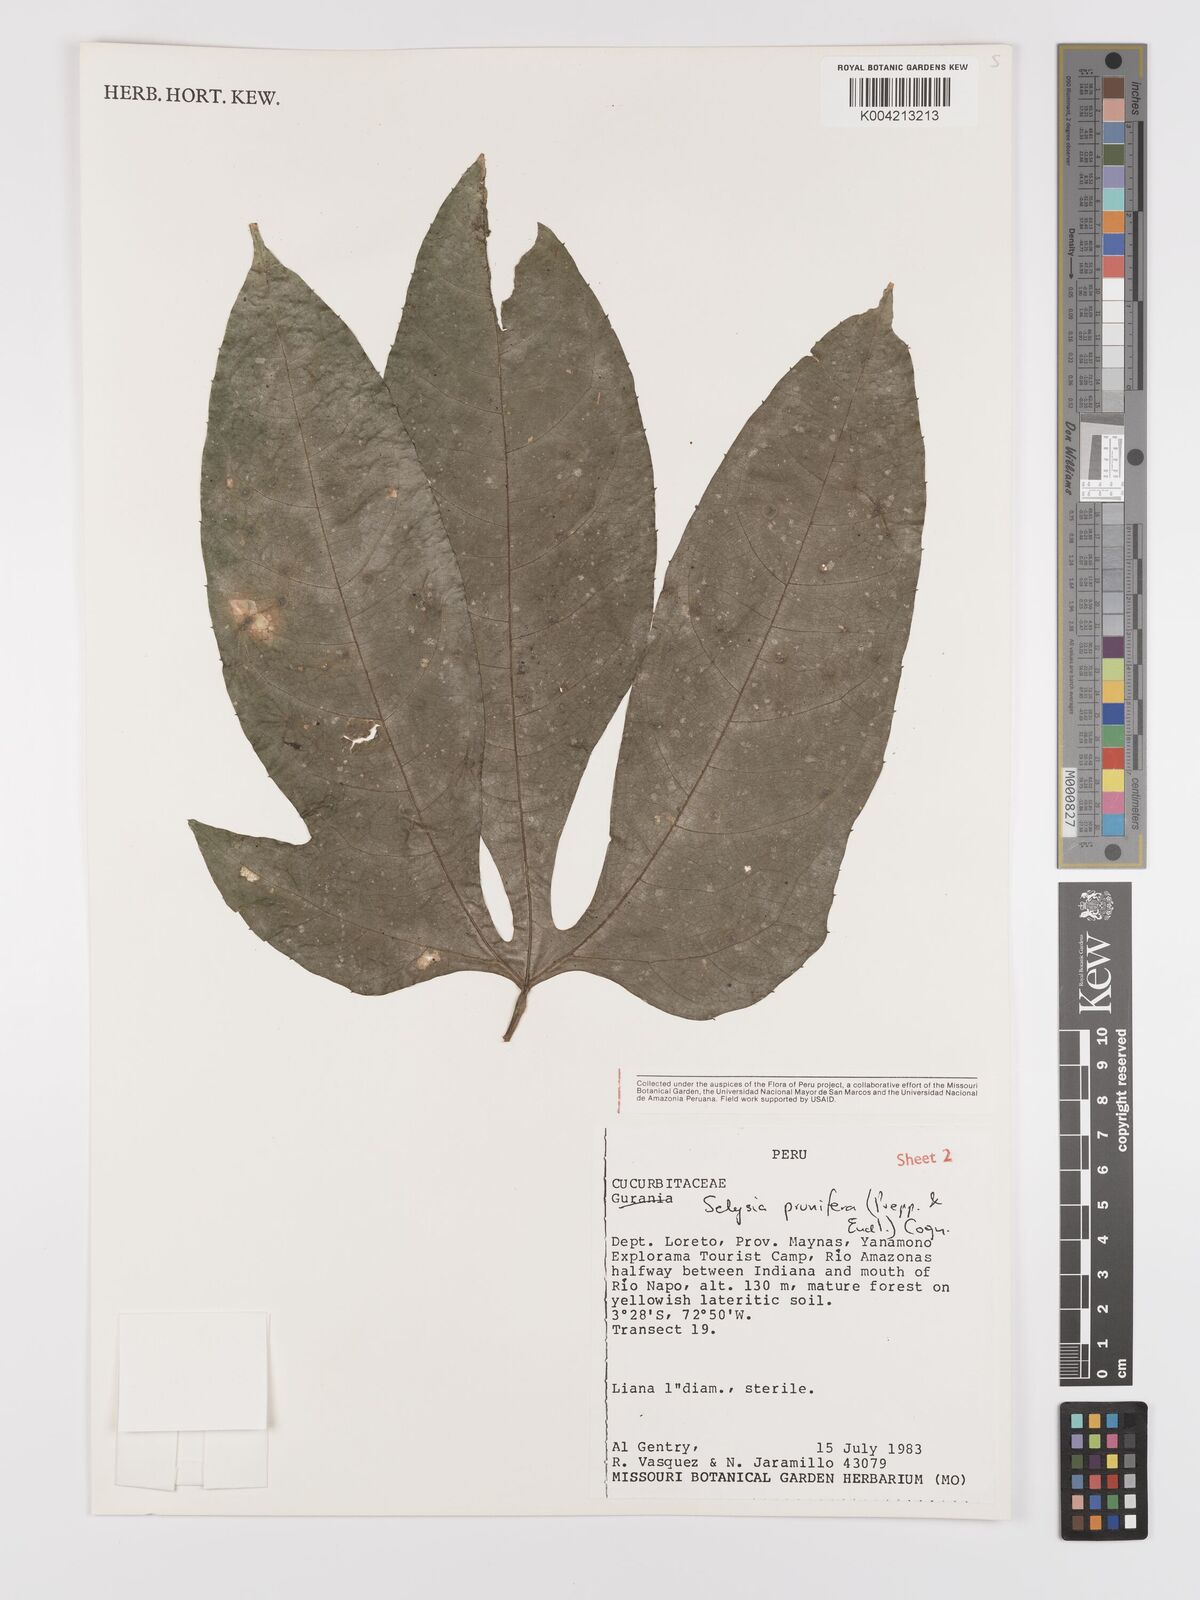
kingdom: Plantae
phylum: Tracheophyta
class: Magnoliopsida
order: Cucurbitales
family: Cucurbitaceae
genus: Cayaponia
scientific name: Cayaponia prunifera
